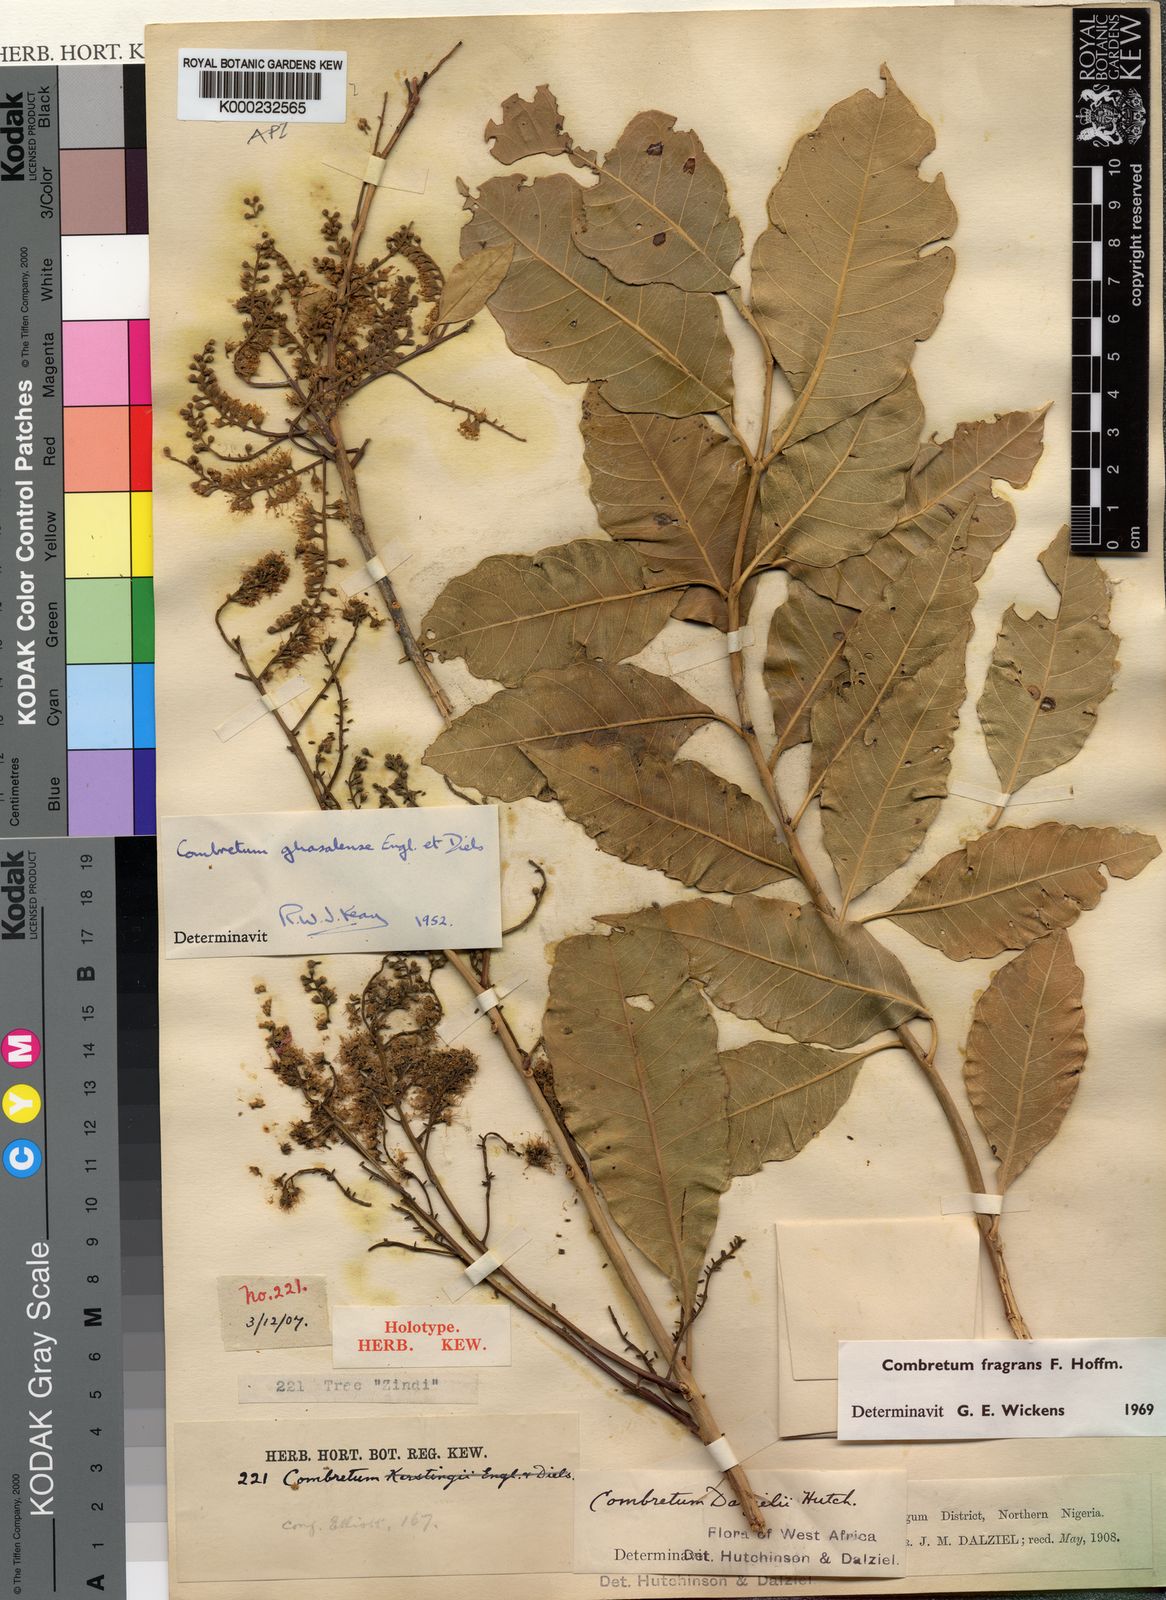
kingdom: Plantae
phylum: Tracheophyta
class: Magnoliopsida
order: Myrtales
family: Combretaceae
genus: Combretum
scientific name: Combretum adenogonium
